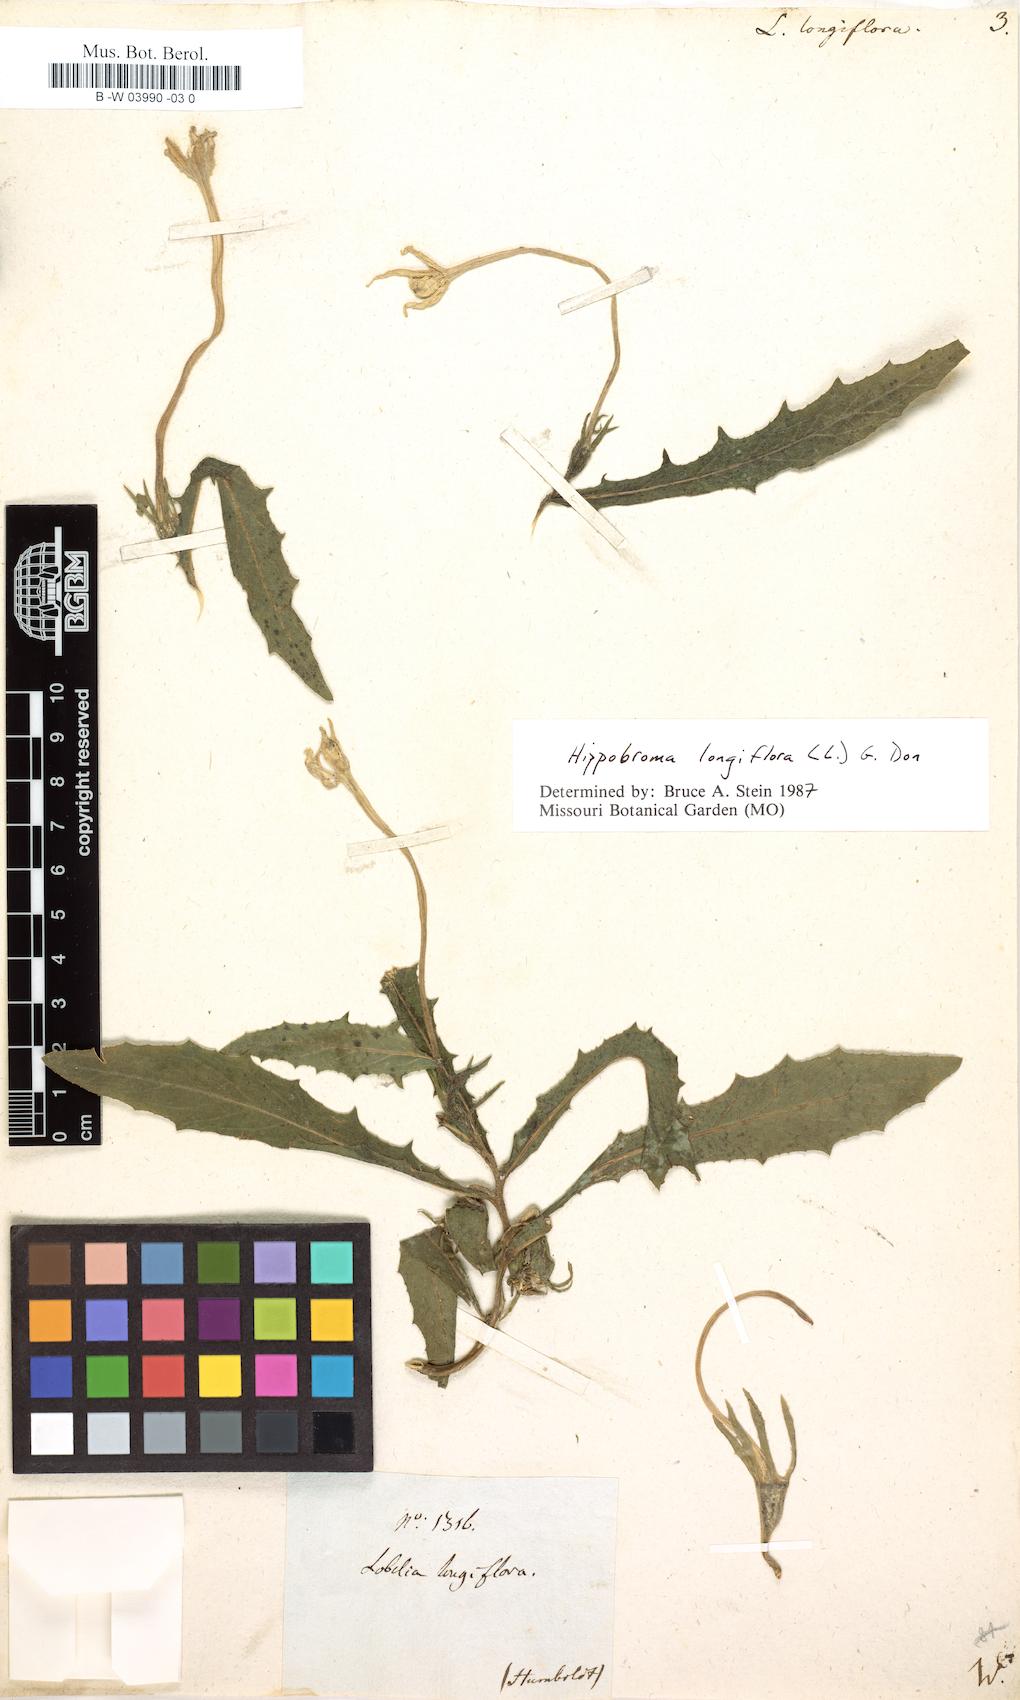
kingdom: Plantae
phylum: Tracheophyta
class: Magnoliopsida
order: Asterales
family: Campanulaceae
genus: Hippobroma
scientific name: Hippobroma longiflora
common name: Madamfate
